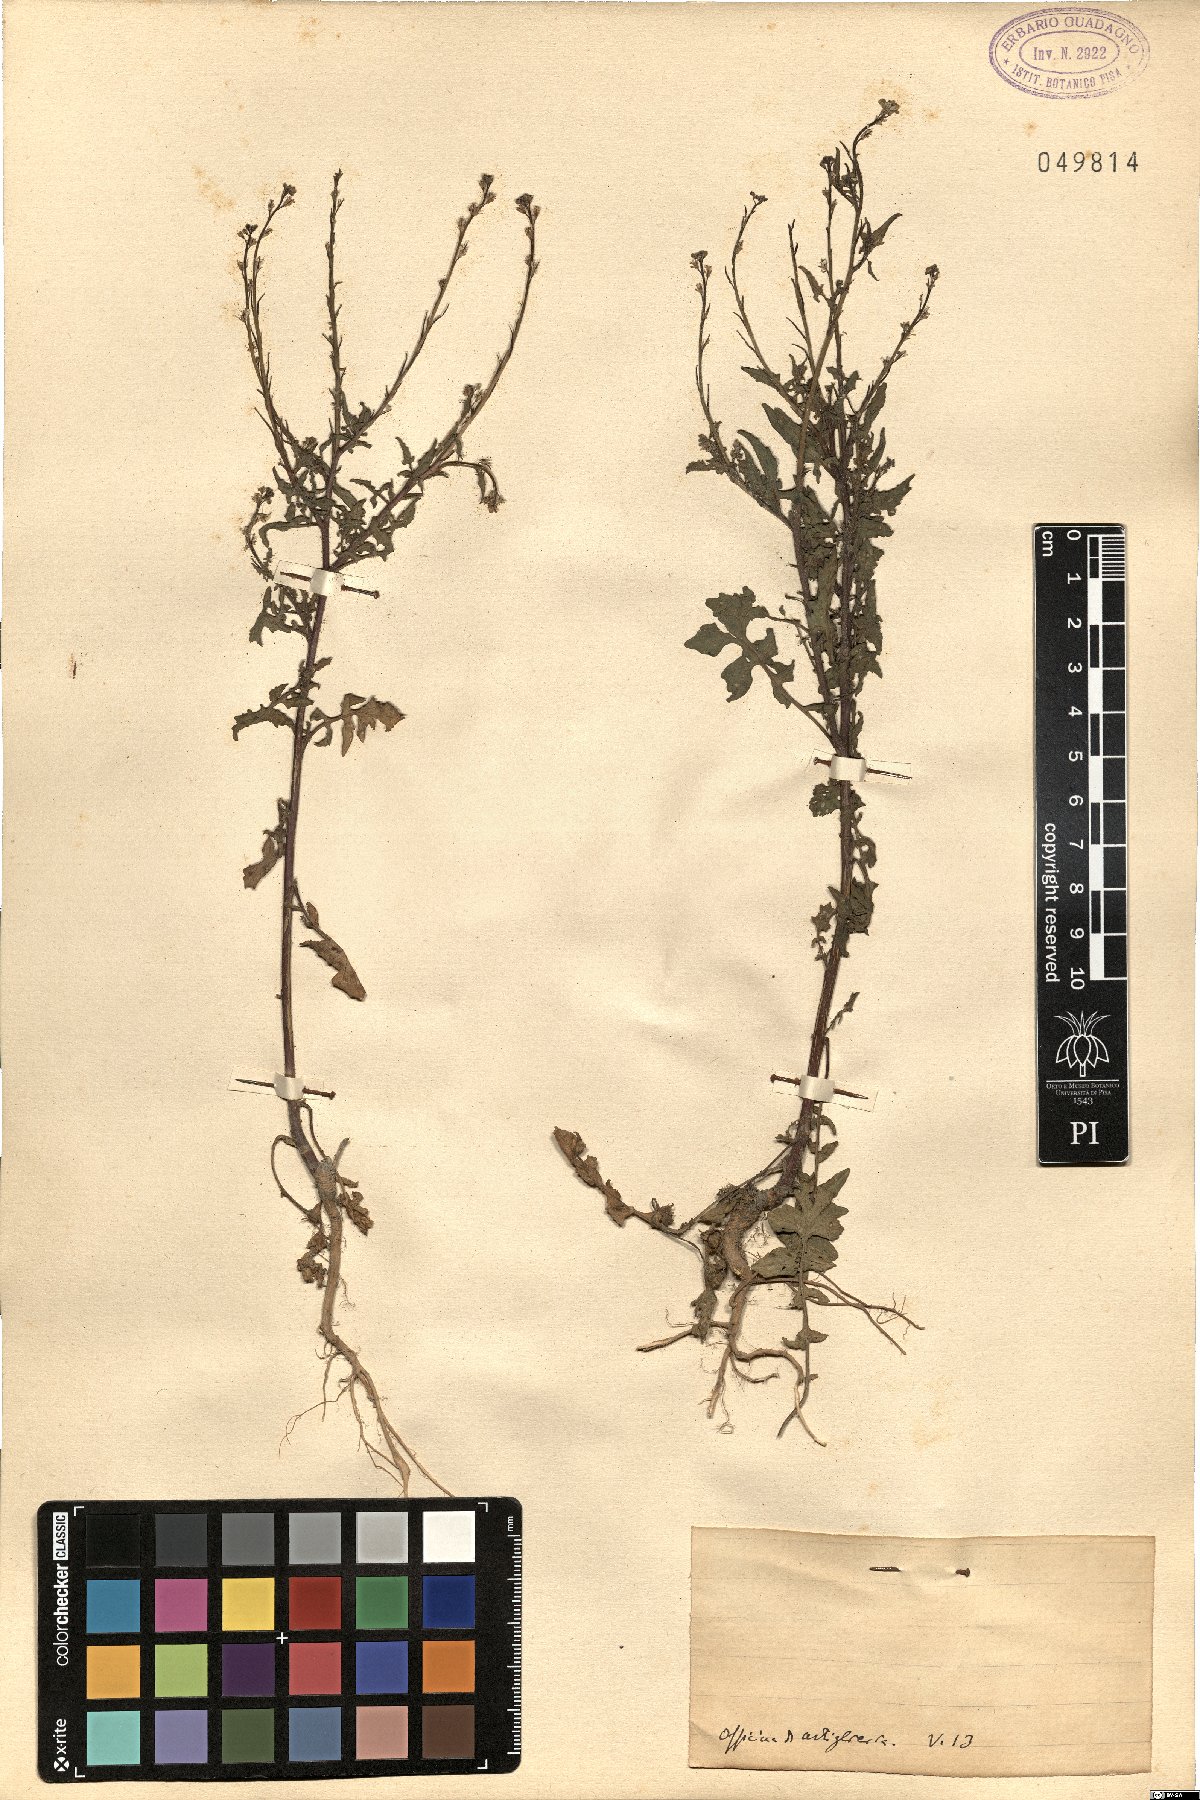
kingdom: Plantae
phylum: Tracheophyta
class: Magnoliopsida
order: Brassicales
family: Brassicaceae
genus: Sisymbrium
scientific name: Sisymbrium
